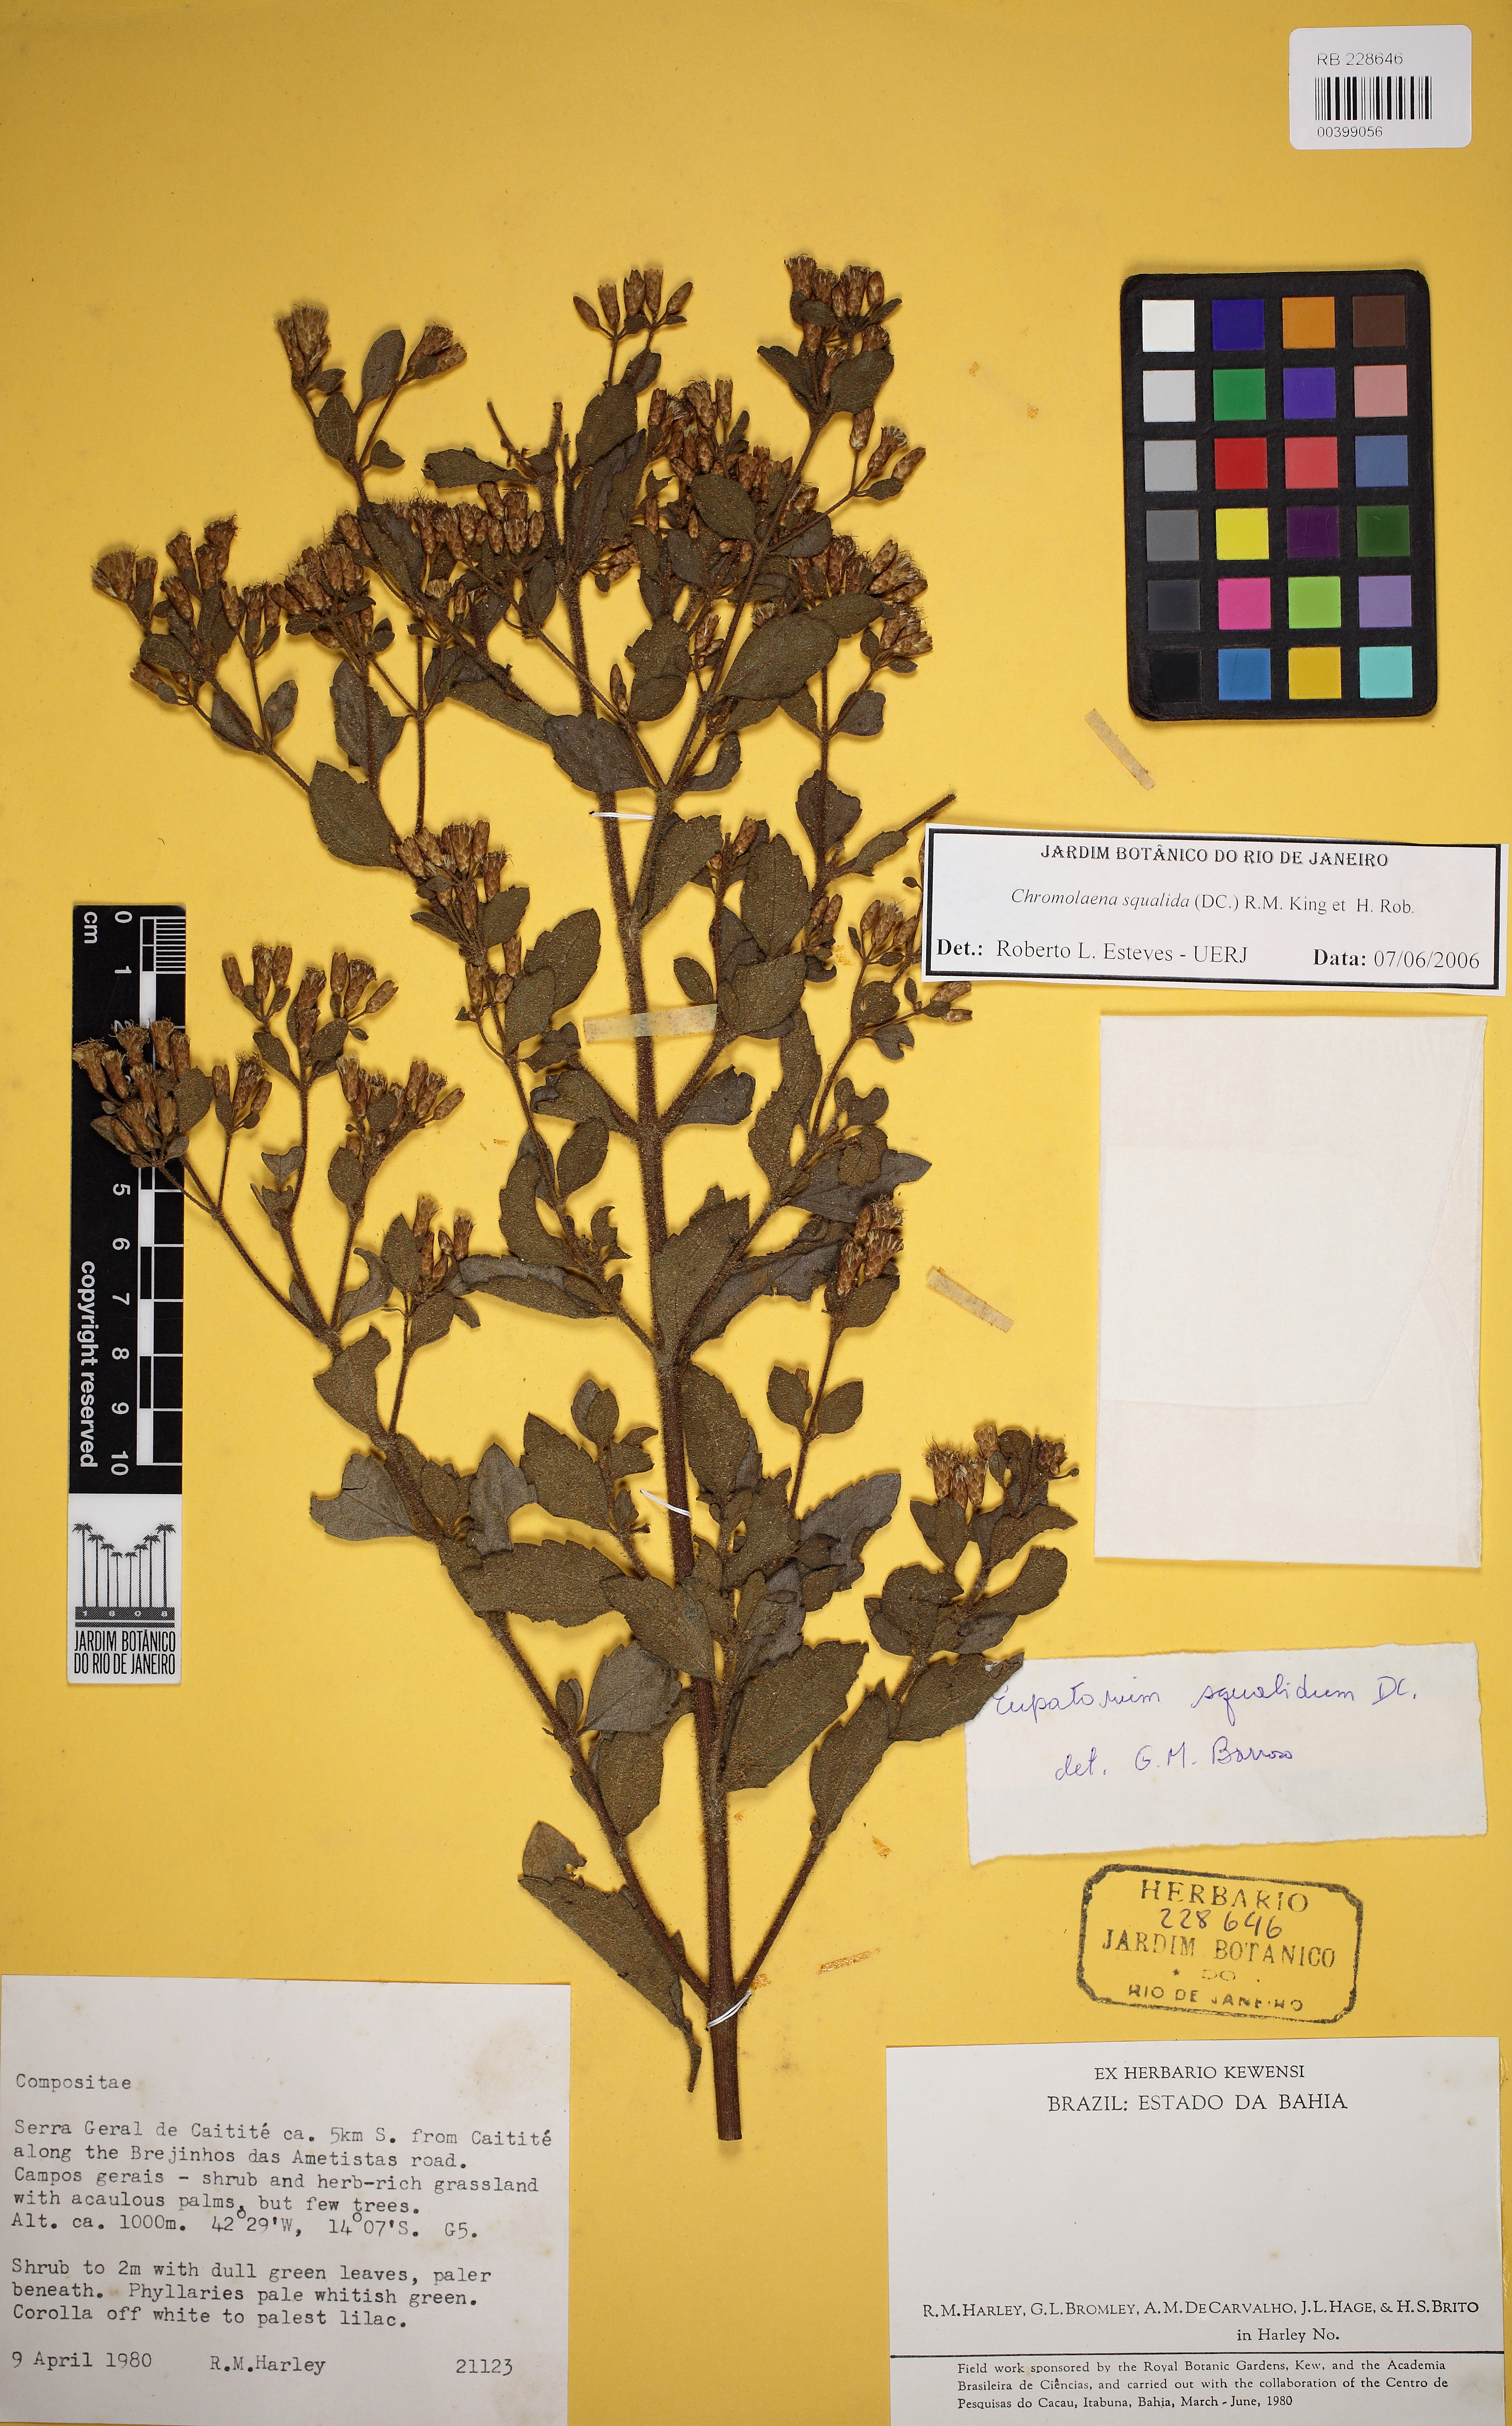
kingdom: Plantae
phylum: Tracheophyta
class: Magnoliopsida
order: Asterales
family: Asteraceae
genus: Chromolaena
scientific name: Chromolaena squalida
